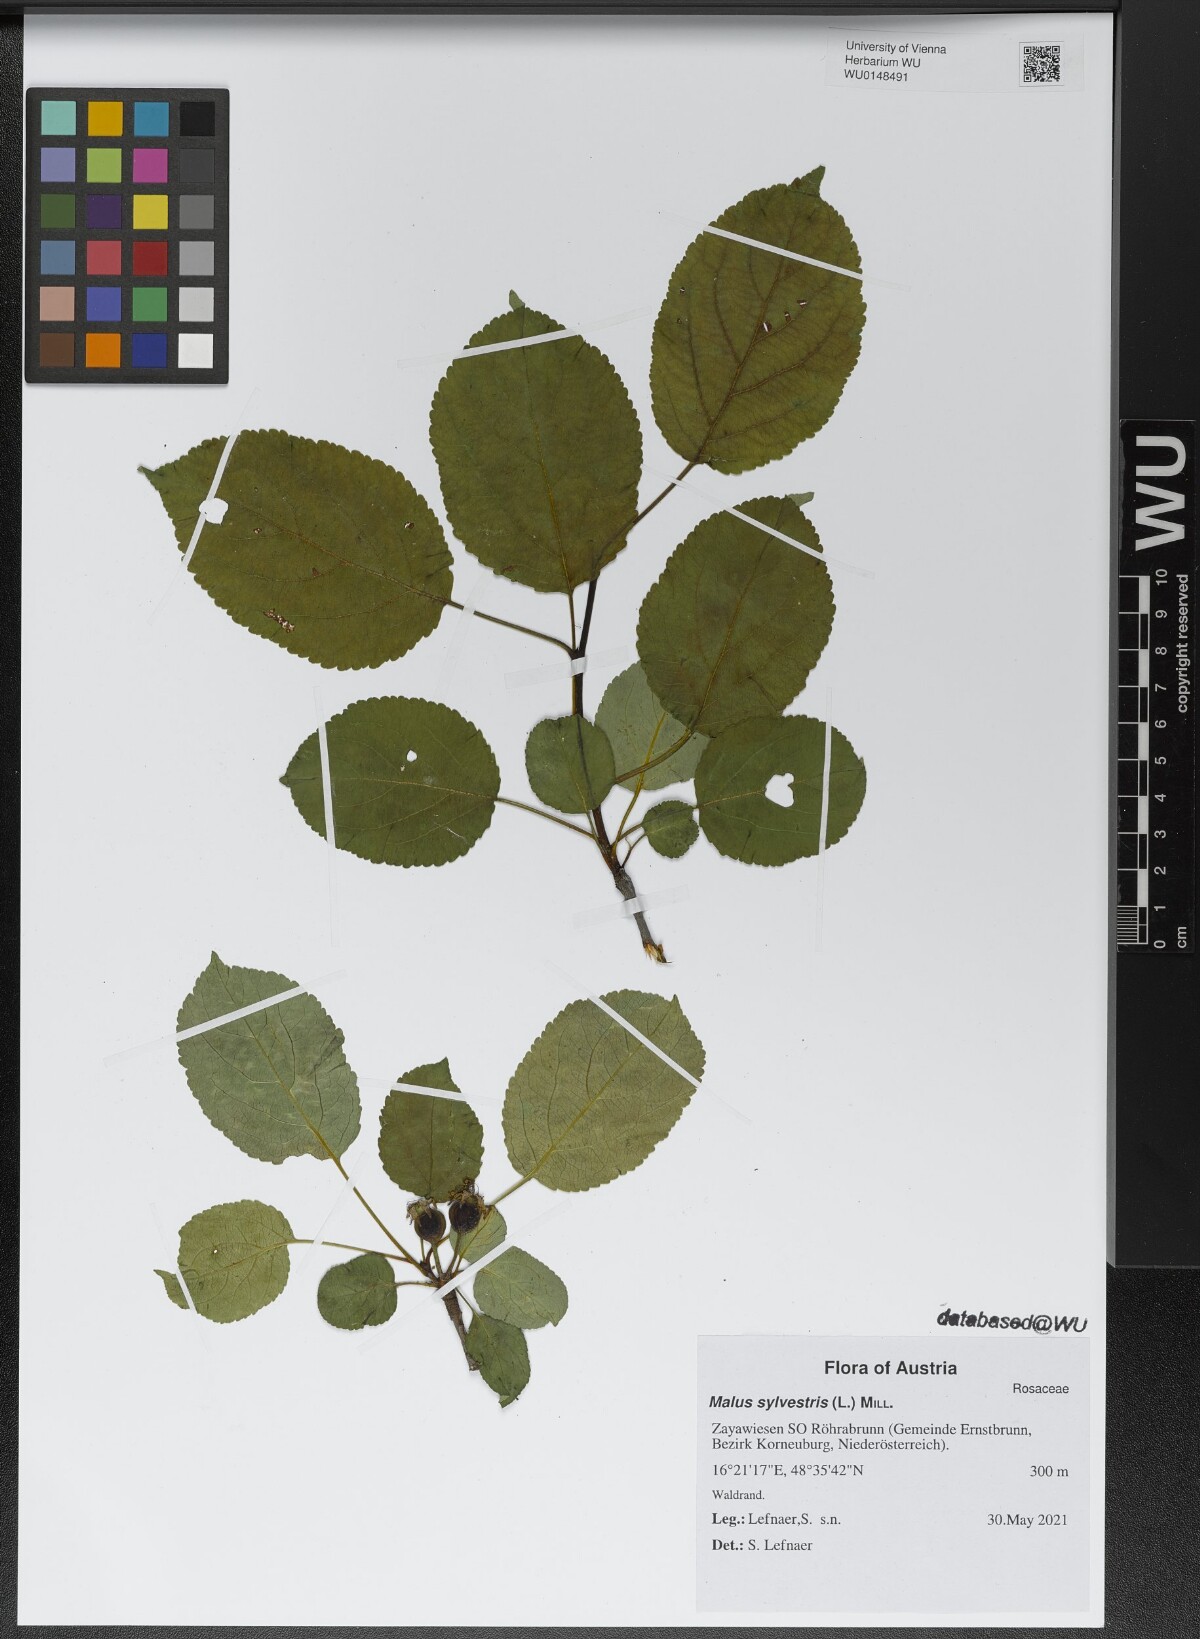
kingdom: Plantae
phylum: Tracheophyta
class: Magnoliopsida
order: Rosales
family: Rosaceae
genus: Malus
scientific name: Malus sylvestris
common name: Crab apple
